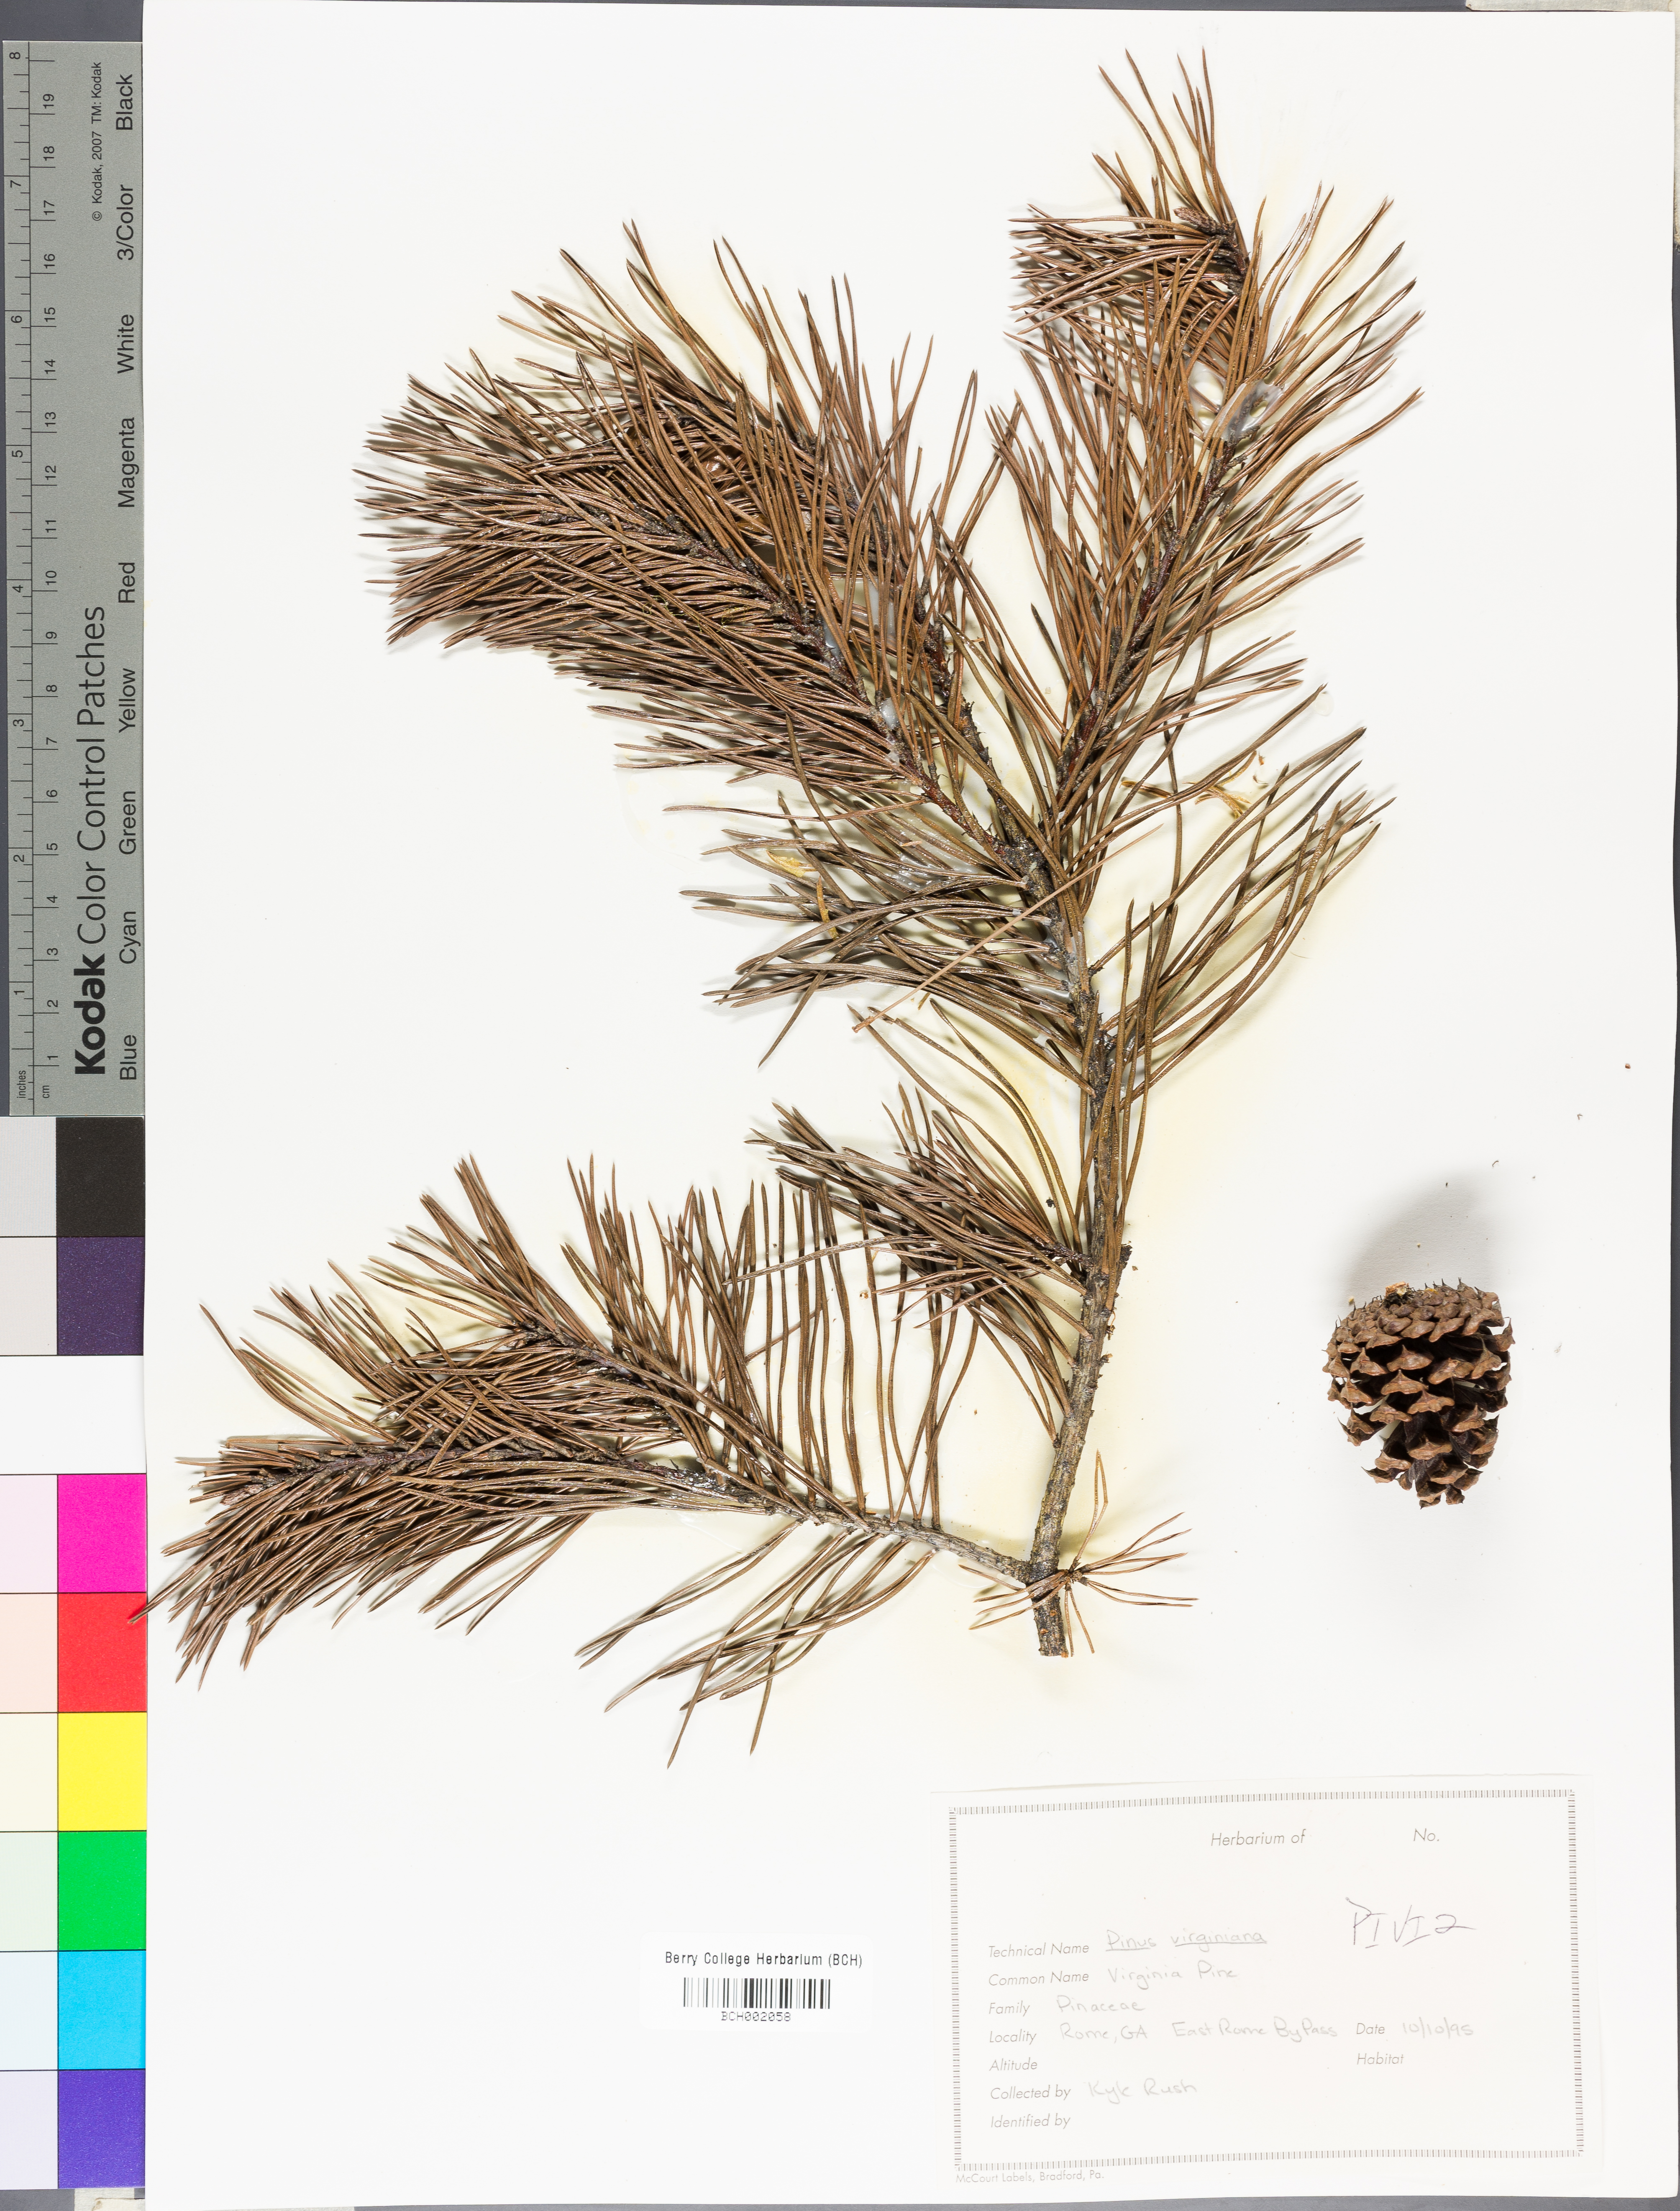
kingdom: Plantae
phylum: Tracheophyta
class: Pinopsida
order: Pinales
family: Pinaceae
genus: Pinus
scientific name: Pinus virginiana
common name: Scrub pine
